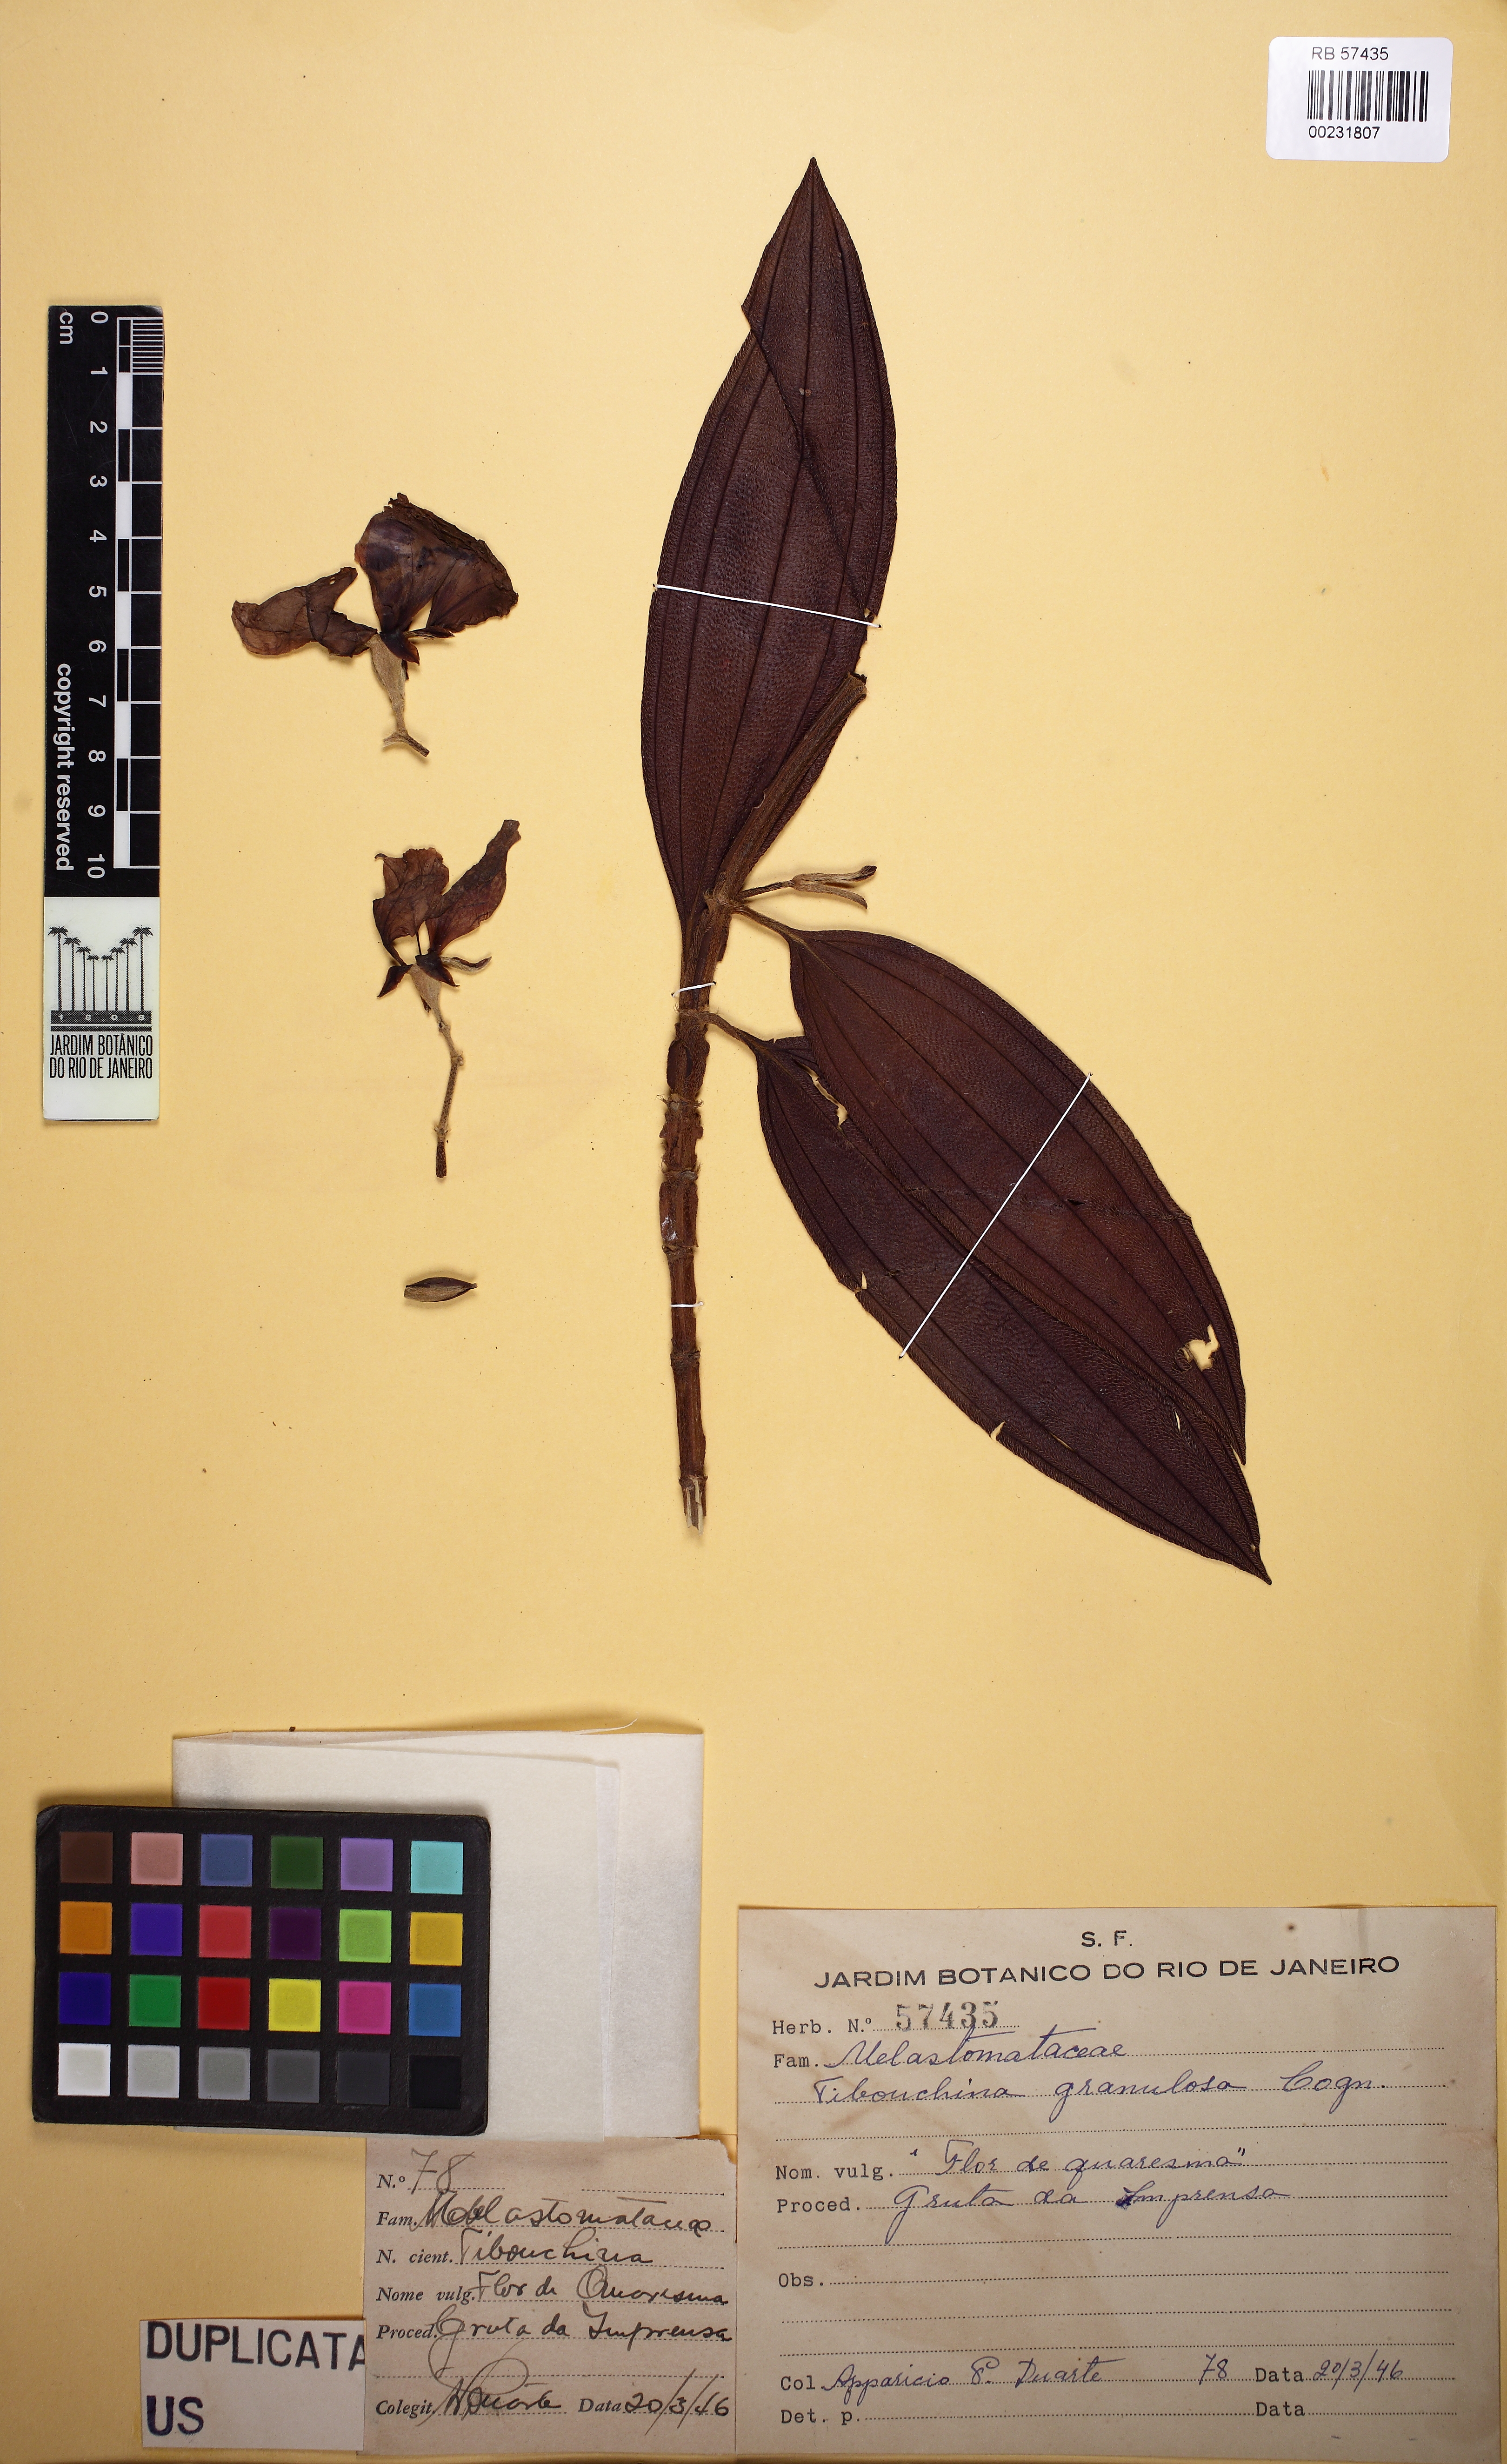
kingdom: Plantae
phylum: Tracheophyta
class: Magnoliopsida
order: Myrtales
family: Melastomataceae
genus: Pleroma
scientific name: Pleroma granulosum
